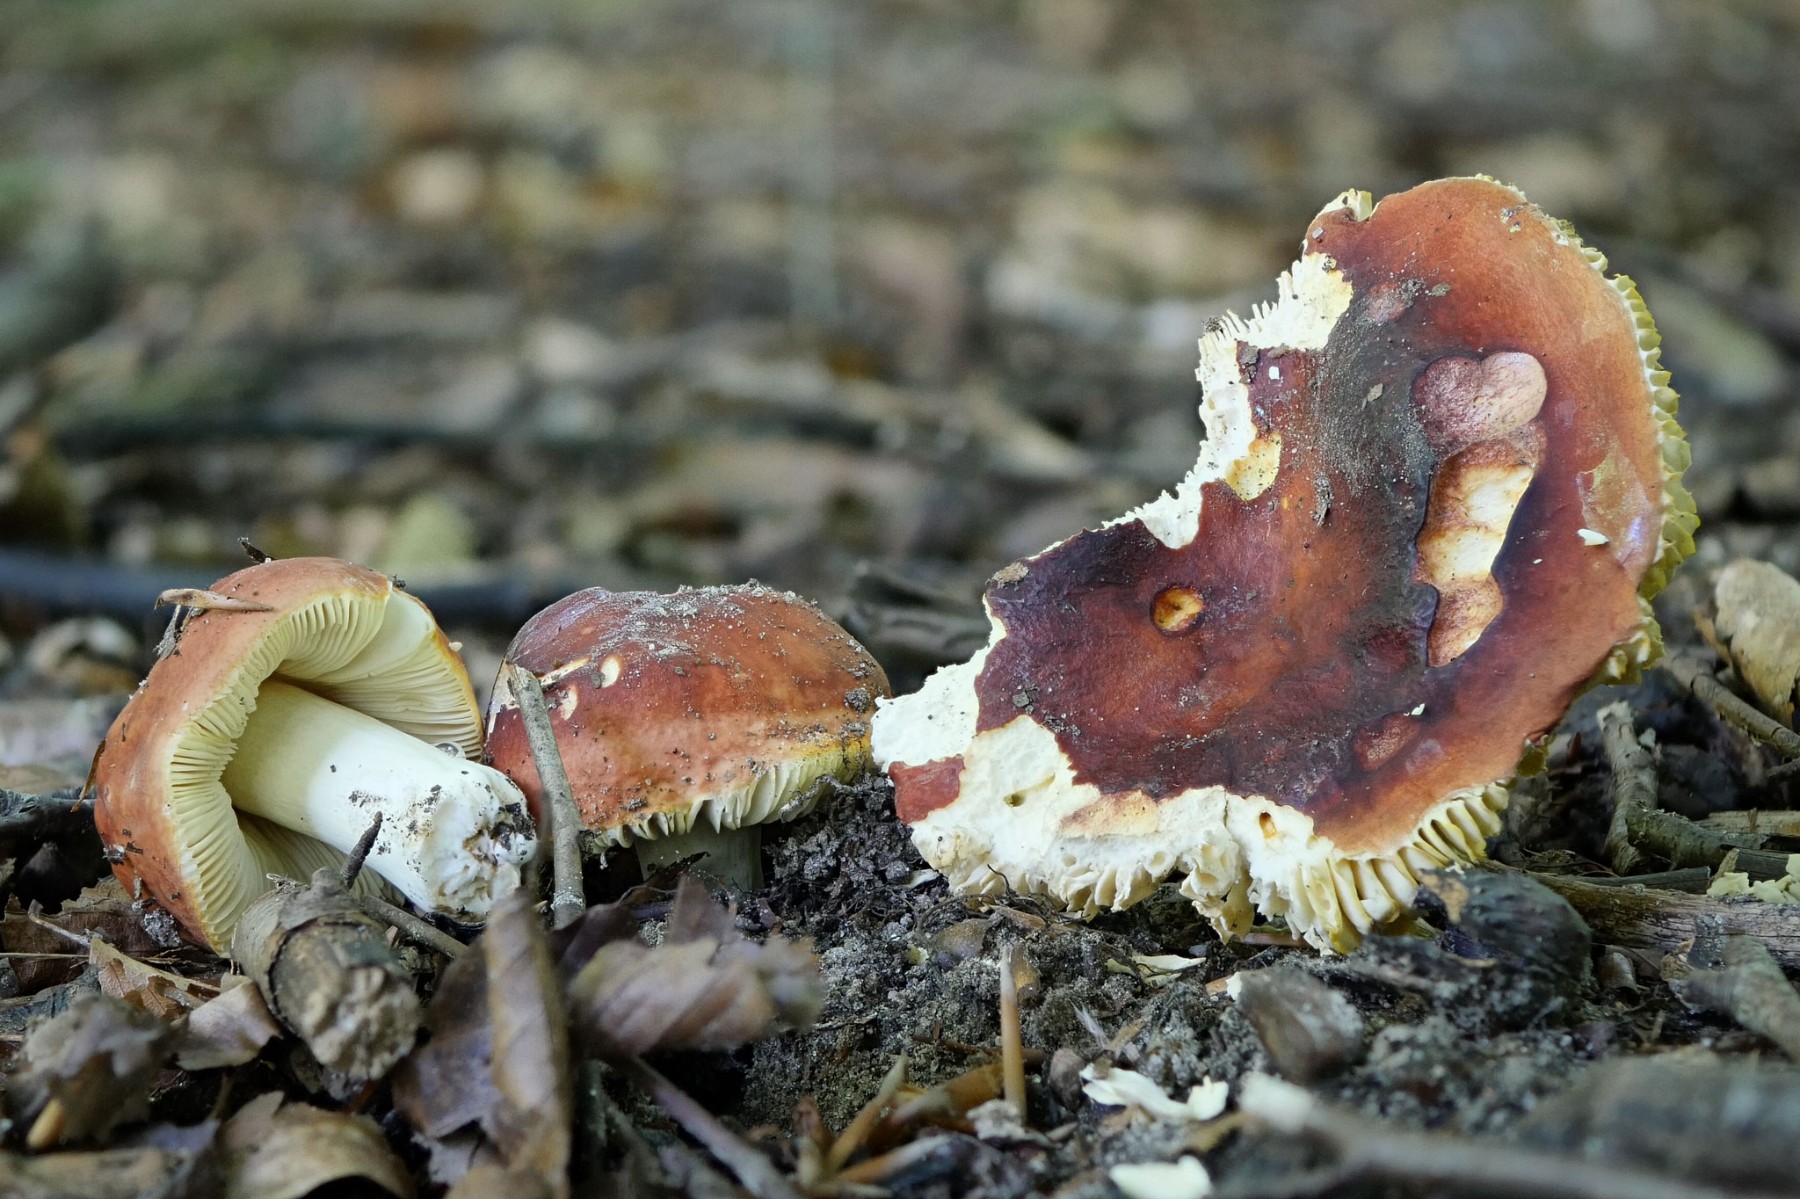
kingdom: Fungi
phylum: Basidiomycota
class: Agaricomycetes
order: Russulales
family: Russulaceae
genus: Russula
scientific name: Russula aurea
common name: gylden skørhat
